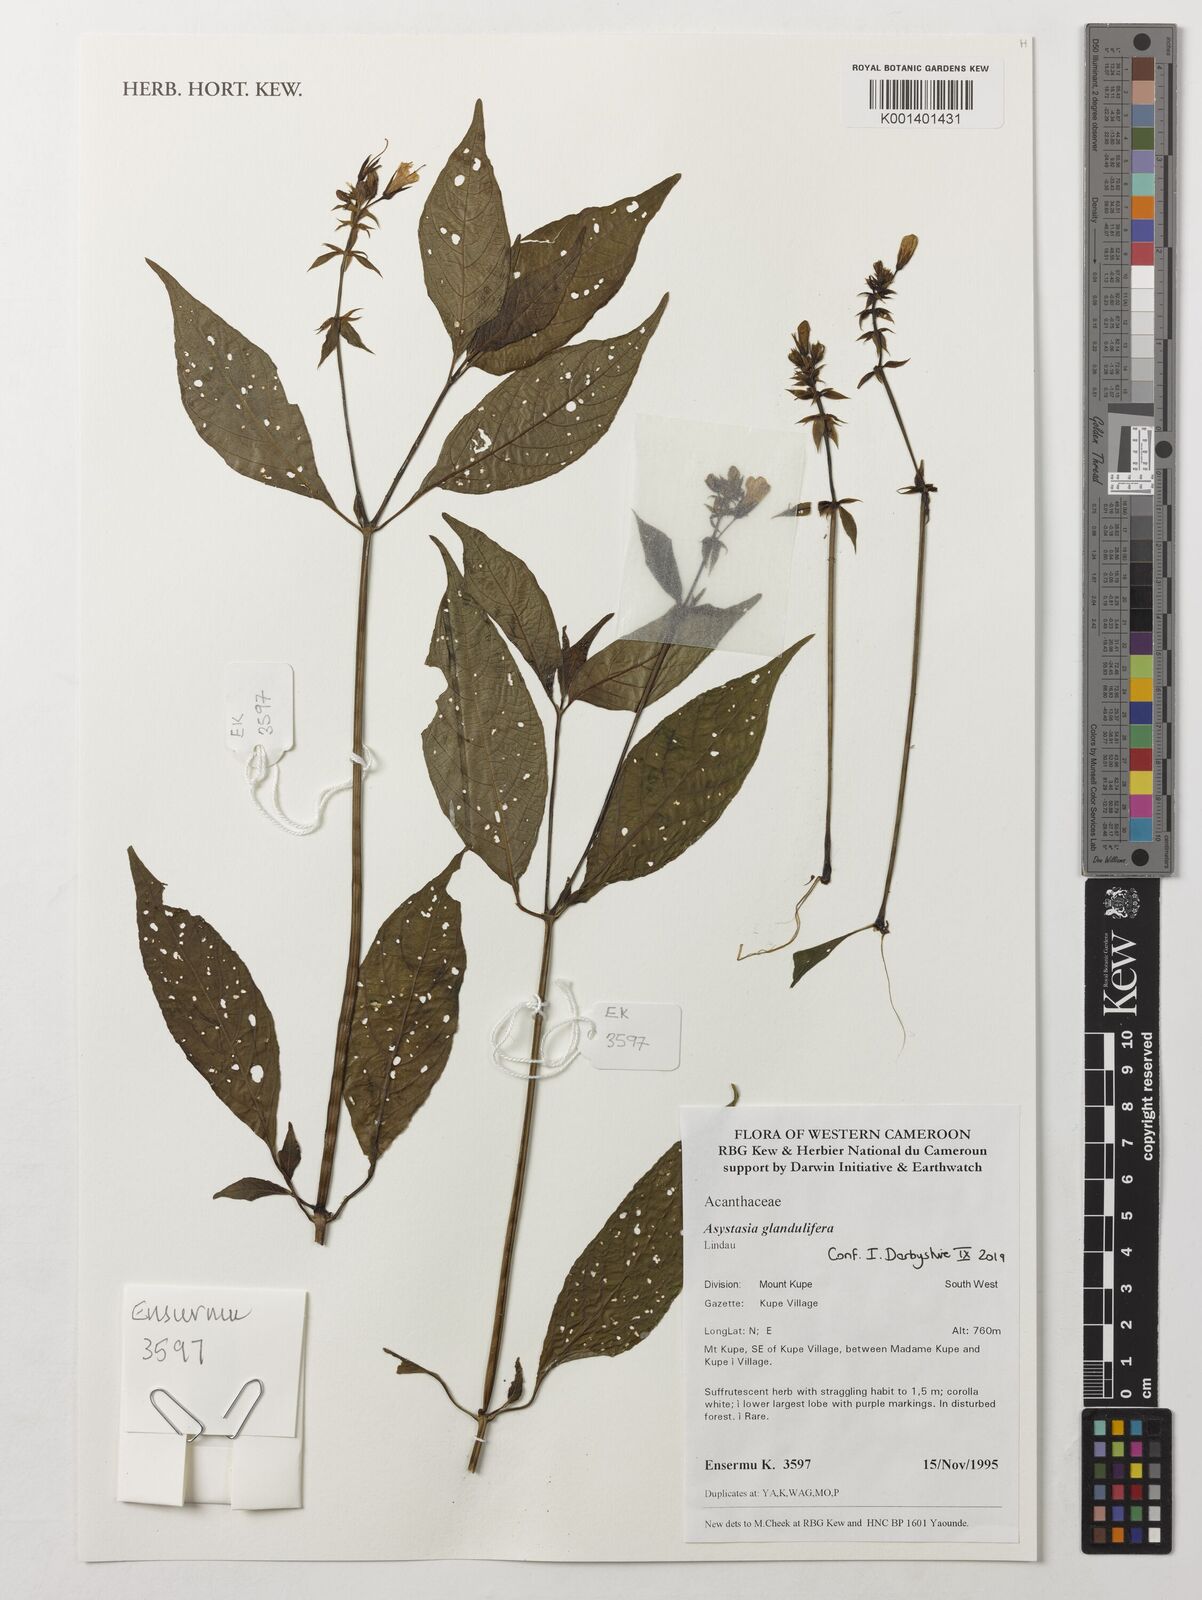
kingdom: Plantae
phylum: Tracheophyta
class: Magnoliopsida
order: Lamiales
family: Acanthaceae
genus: Asystasia
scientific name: Asystasia glandulifera
